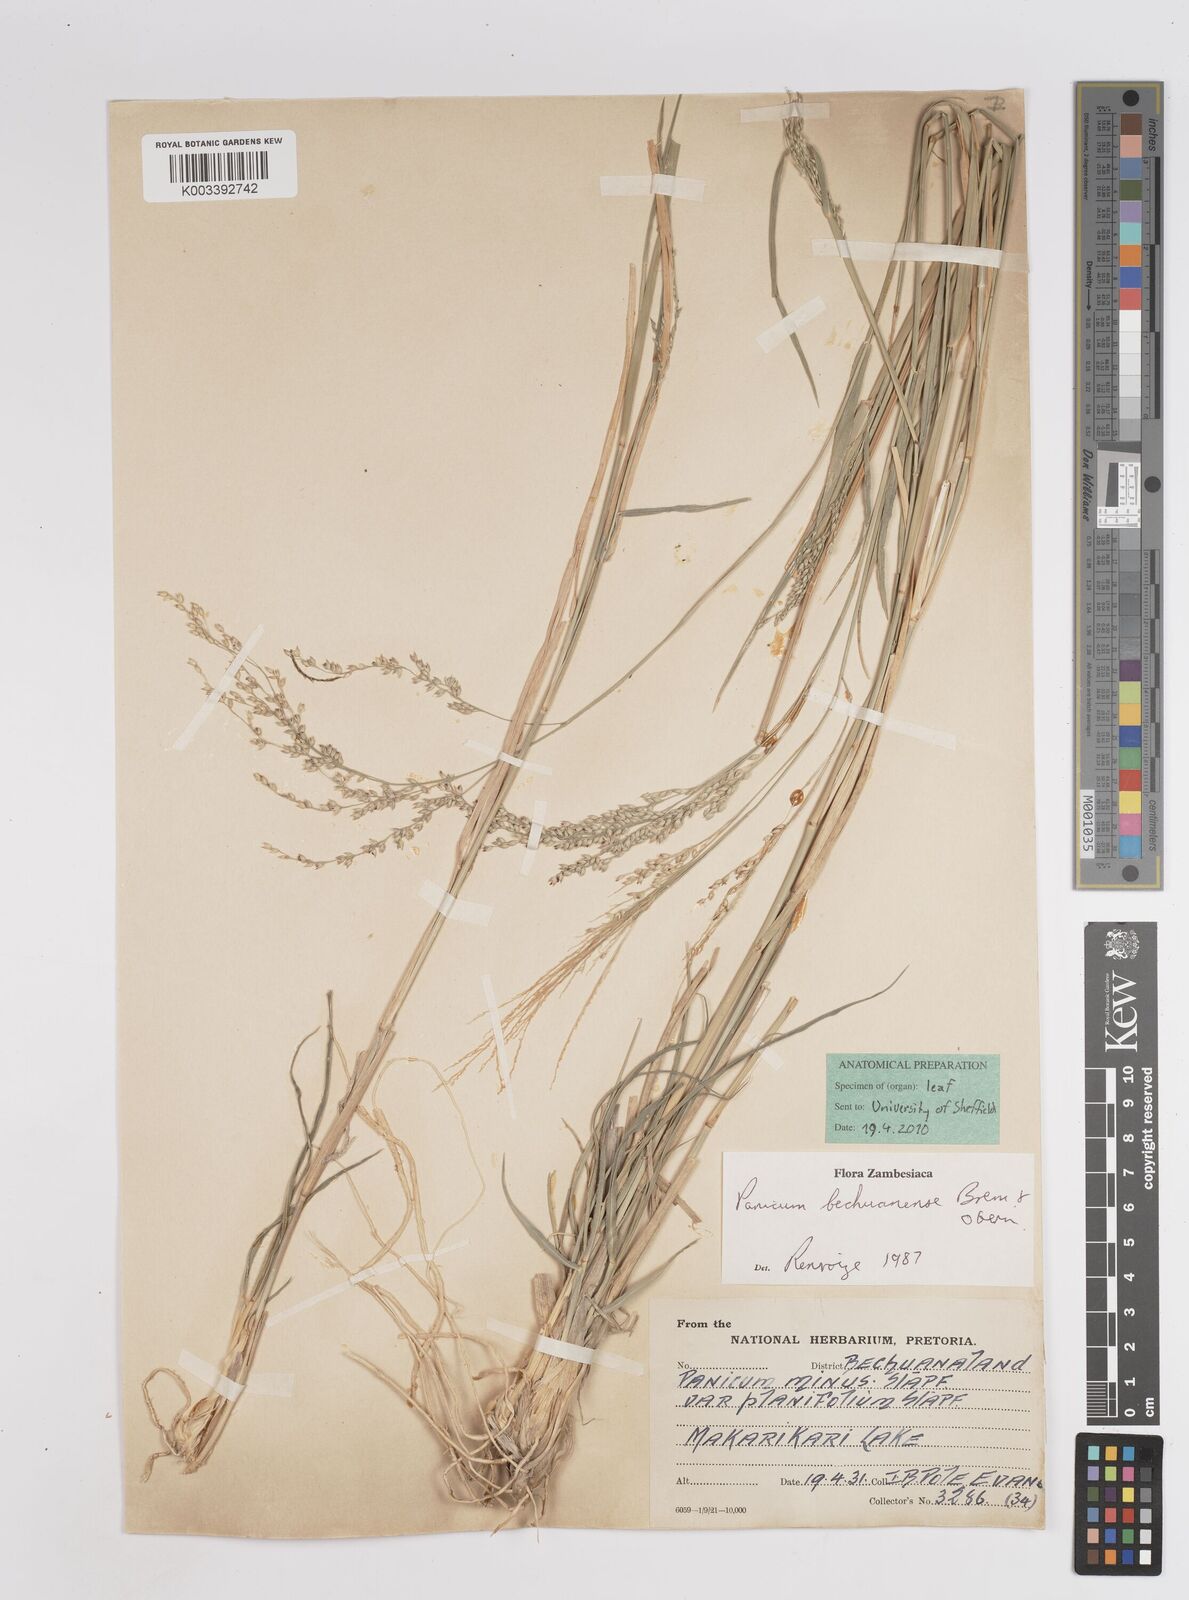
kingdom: Plantae
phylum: Tracheophyta
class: Liliopsida
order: Poales
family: Poaceae
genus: Panicum
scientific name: Panicum bechuanense
